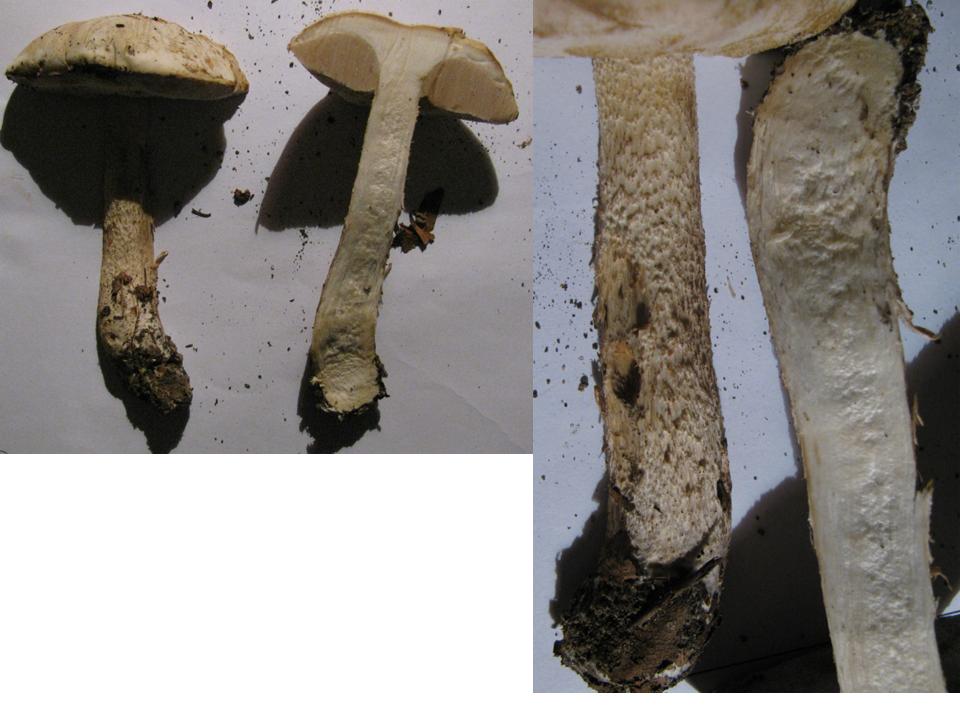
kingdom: Fungi
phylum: Basidiomycota
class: Agaricomycetes
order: Boletales
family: Boletaceae
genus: Leccinum
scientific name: Leccinum scabrum
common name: hvid skælrørhat
